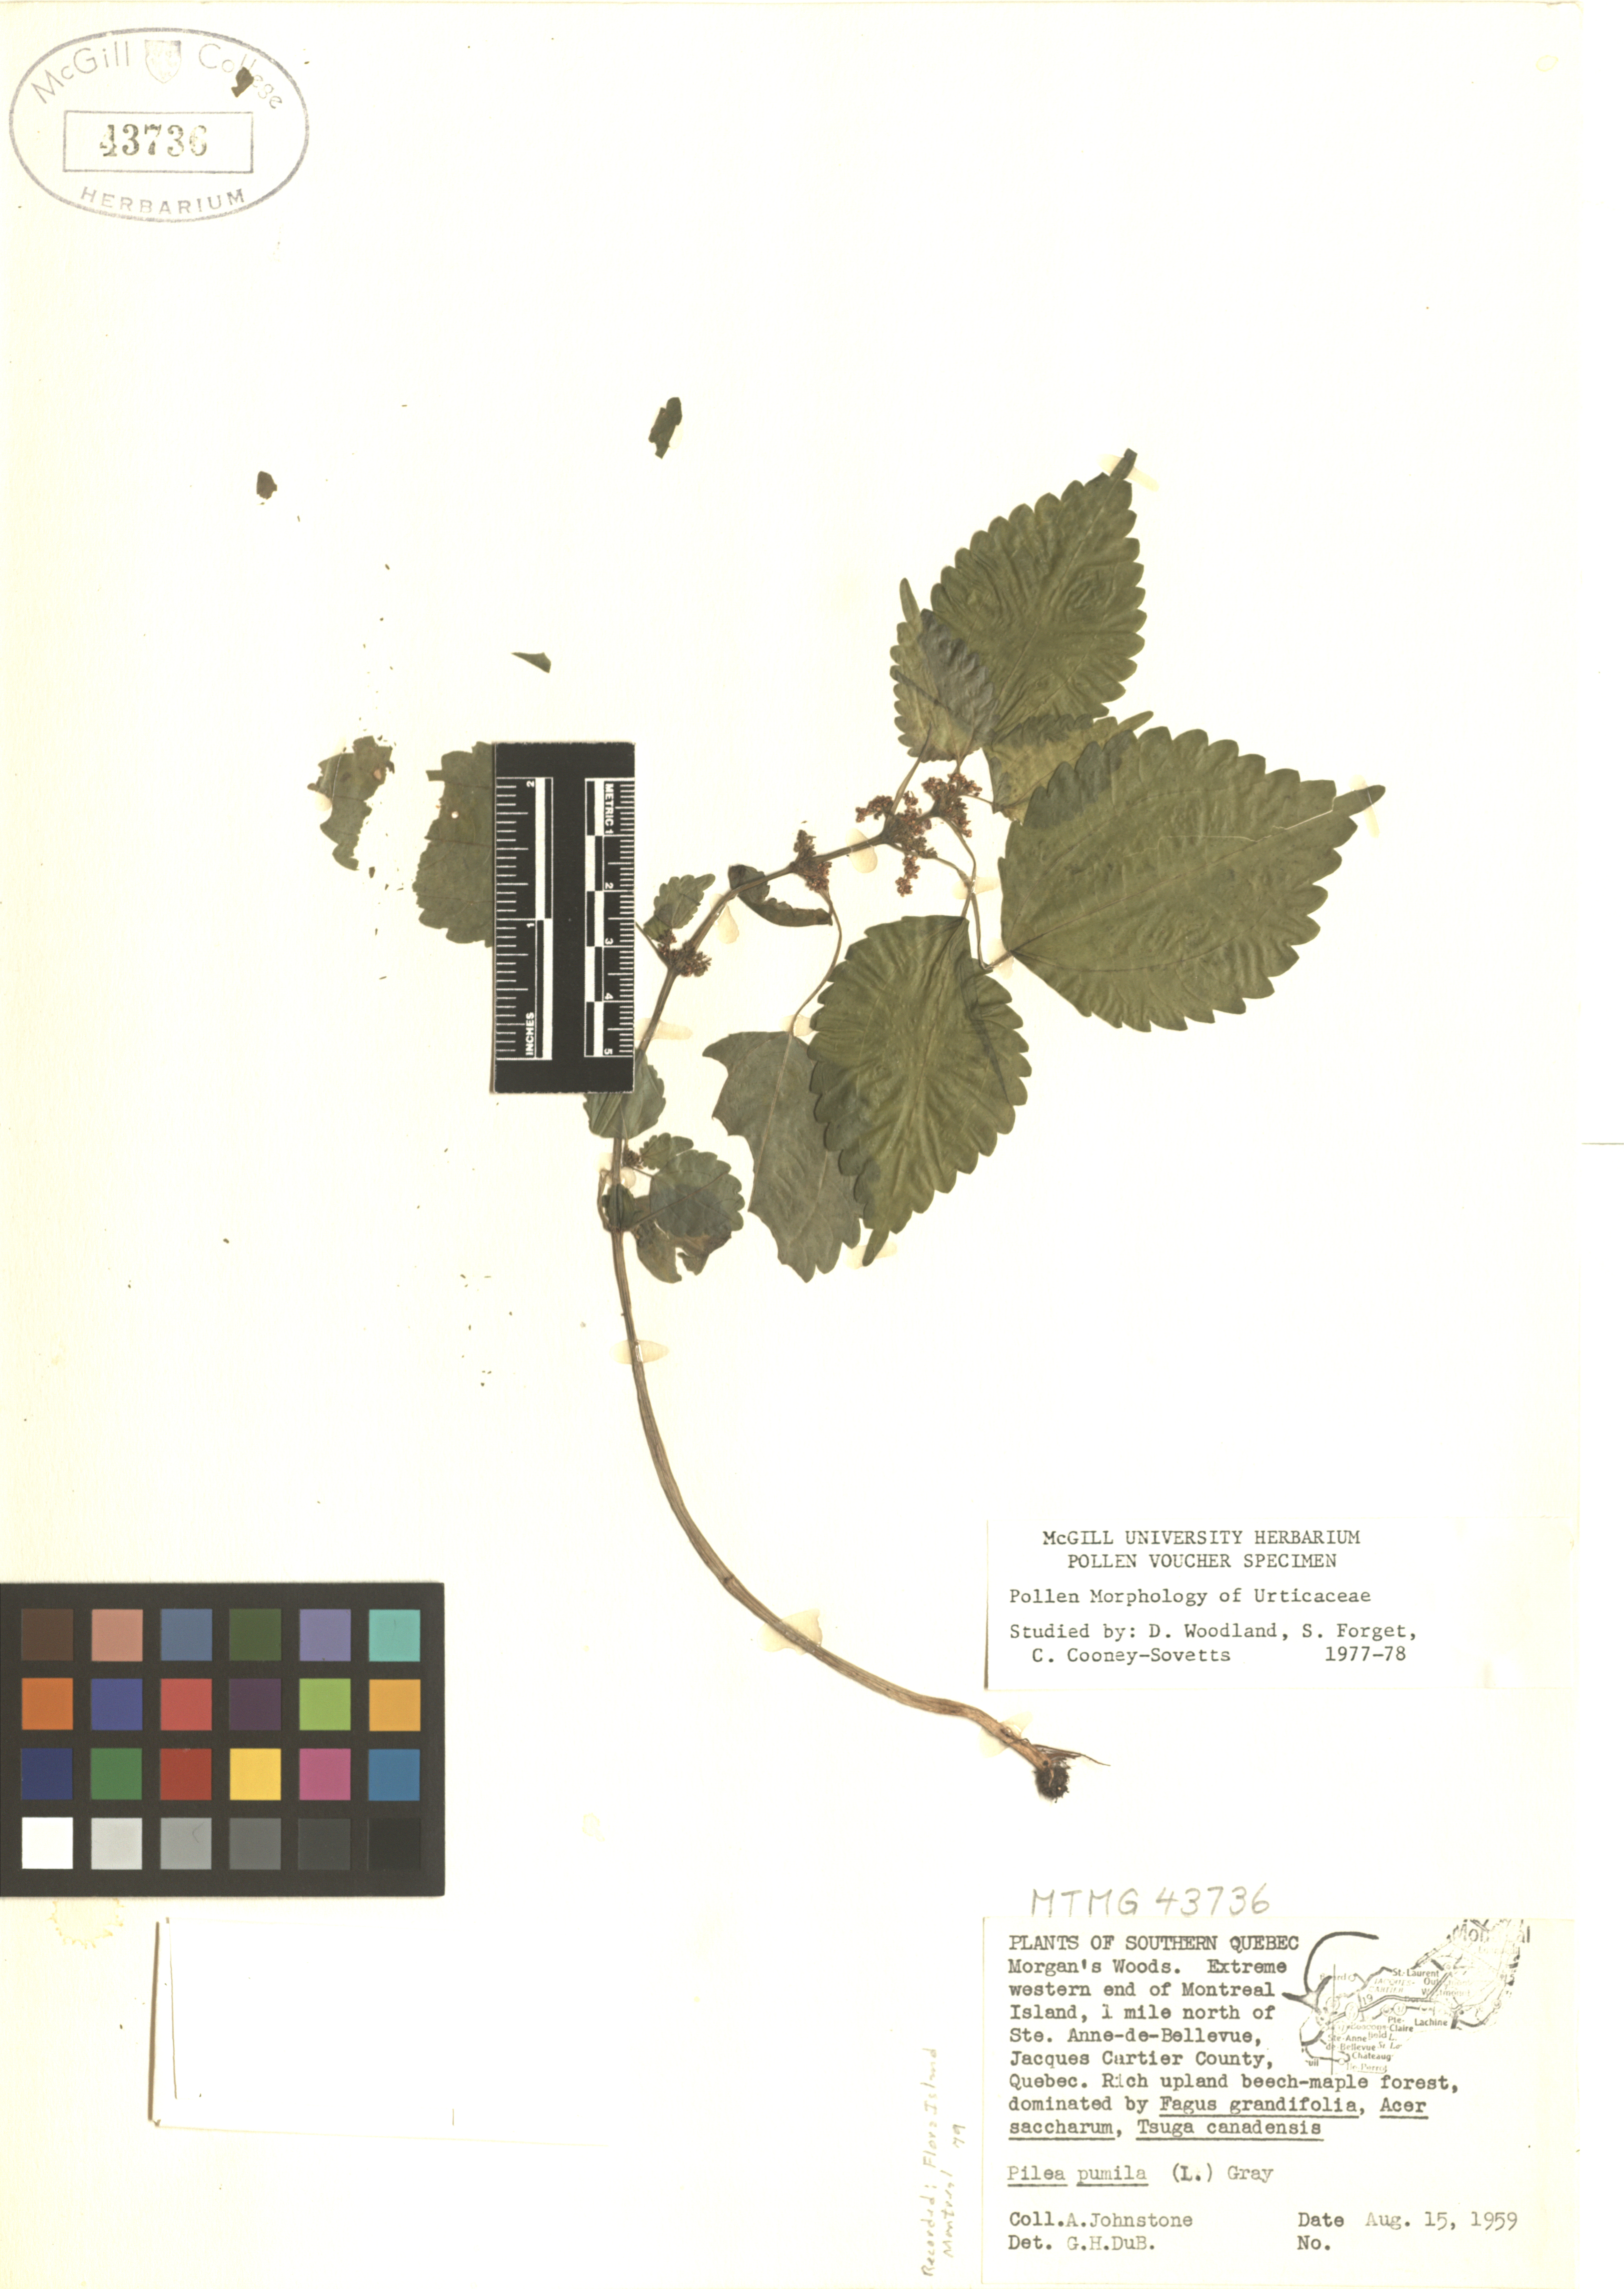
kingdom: Plantae
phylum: Tracheophyta
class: Magnoliopsida
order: Rosales
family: Urticaceae
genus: Pilea
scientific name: Pilea pumila
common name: Clearweed
